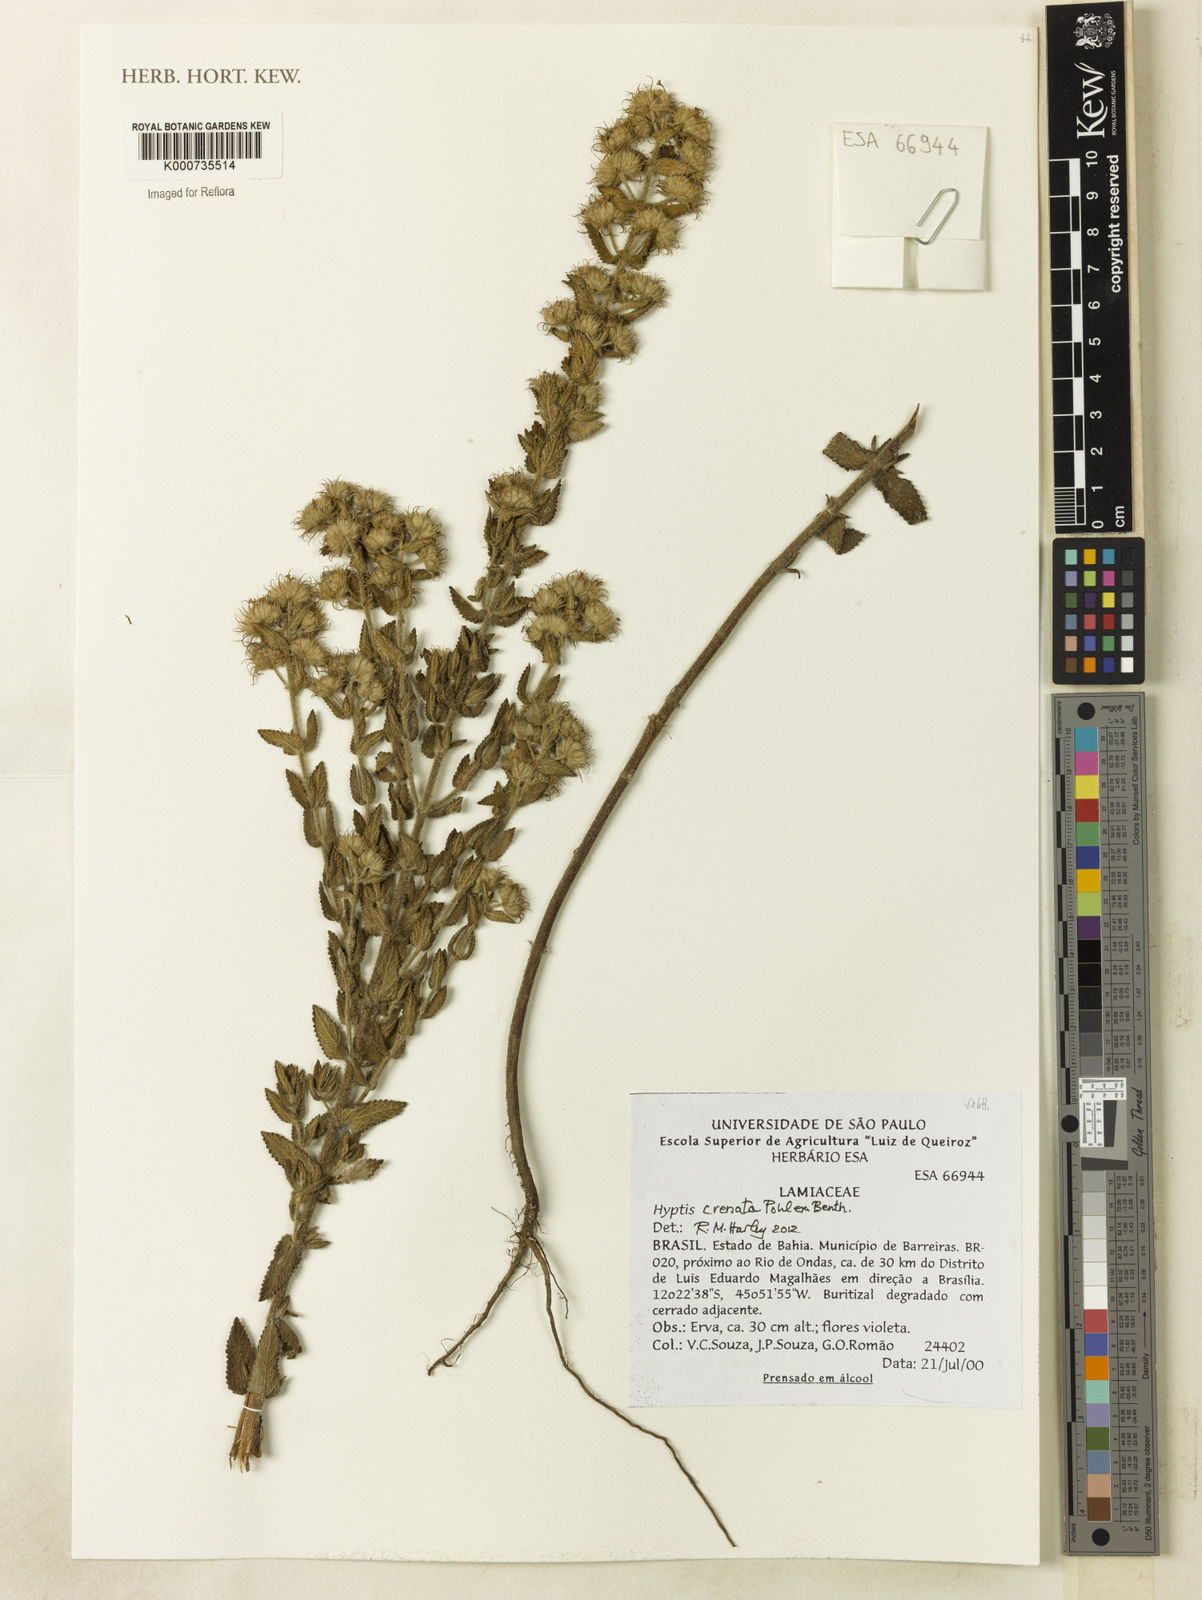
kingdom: Plantae
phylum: Tracheophyta
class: Magnoliopsida
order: Lamiales
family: Lamiaceae
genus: Hyptis
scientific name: Hyptis crenata
